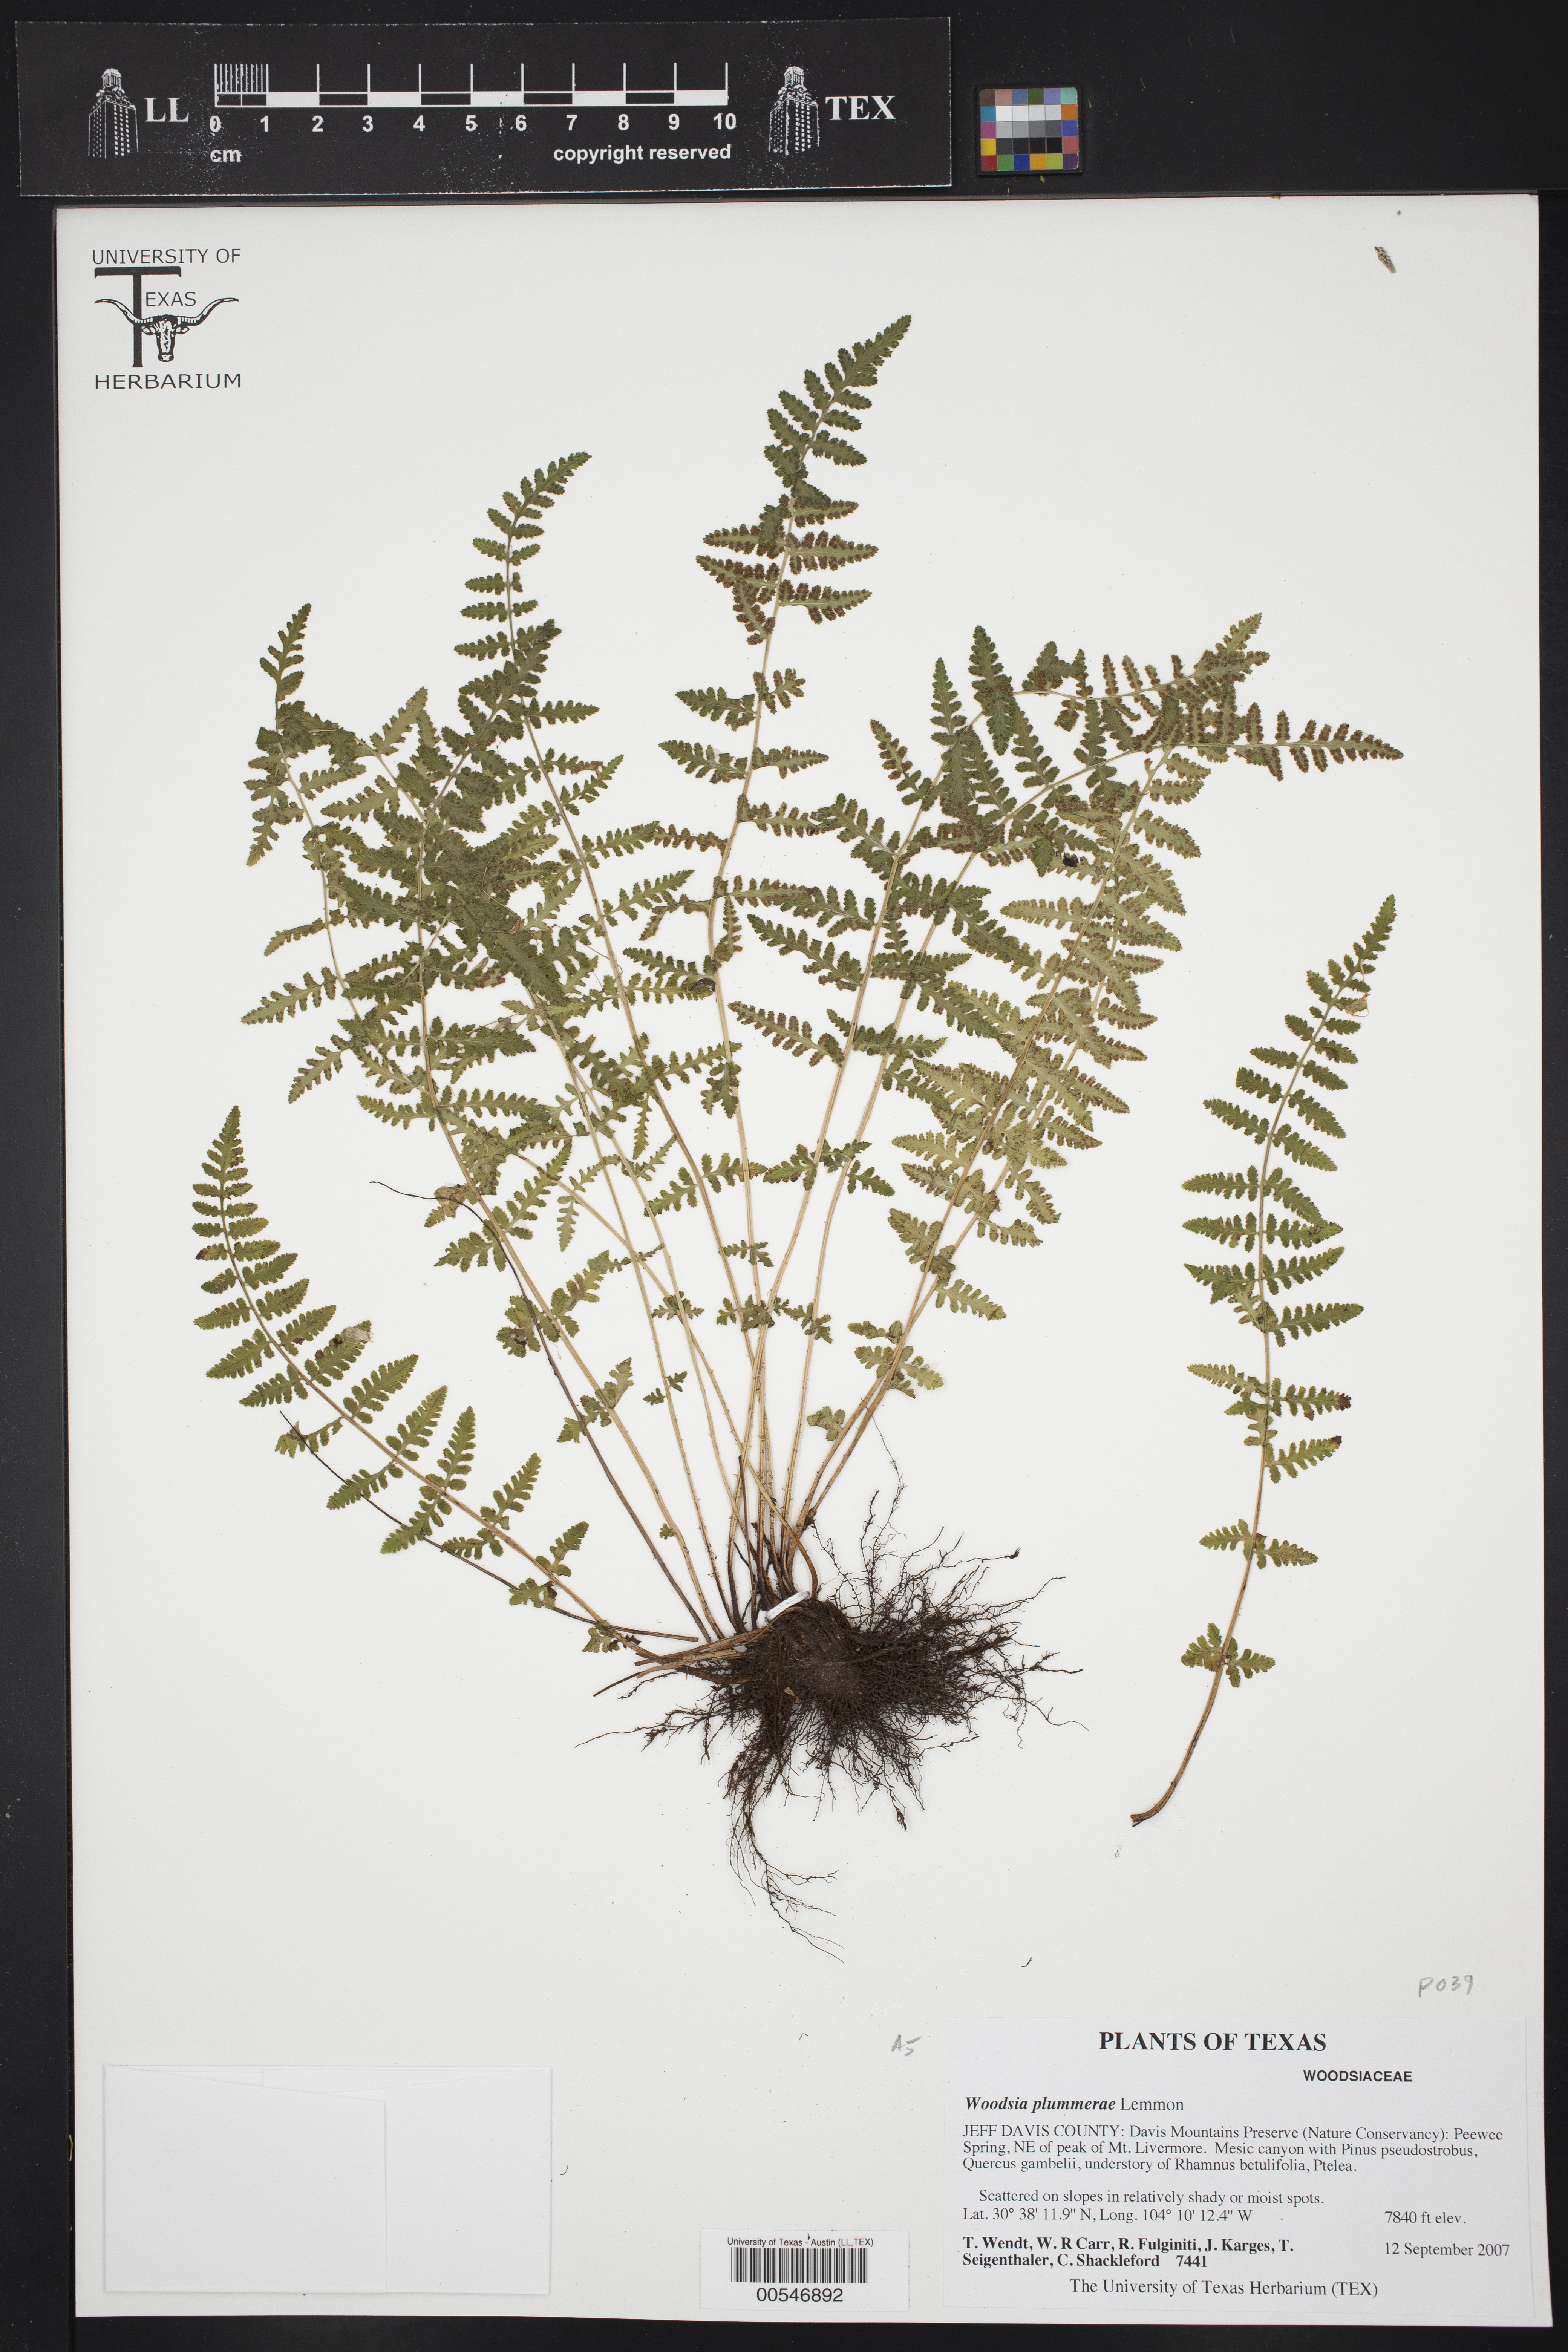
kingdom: Plantae
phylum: Tracheophyta
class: Polypodiopsida
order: Polypodiales
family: Woodsiaceae
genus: Physematium
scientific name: Physematium plummerae
